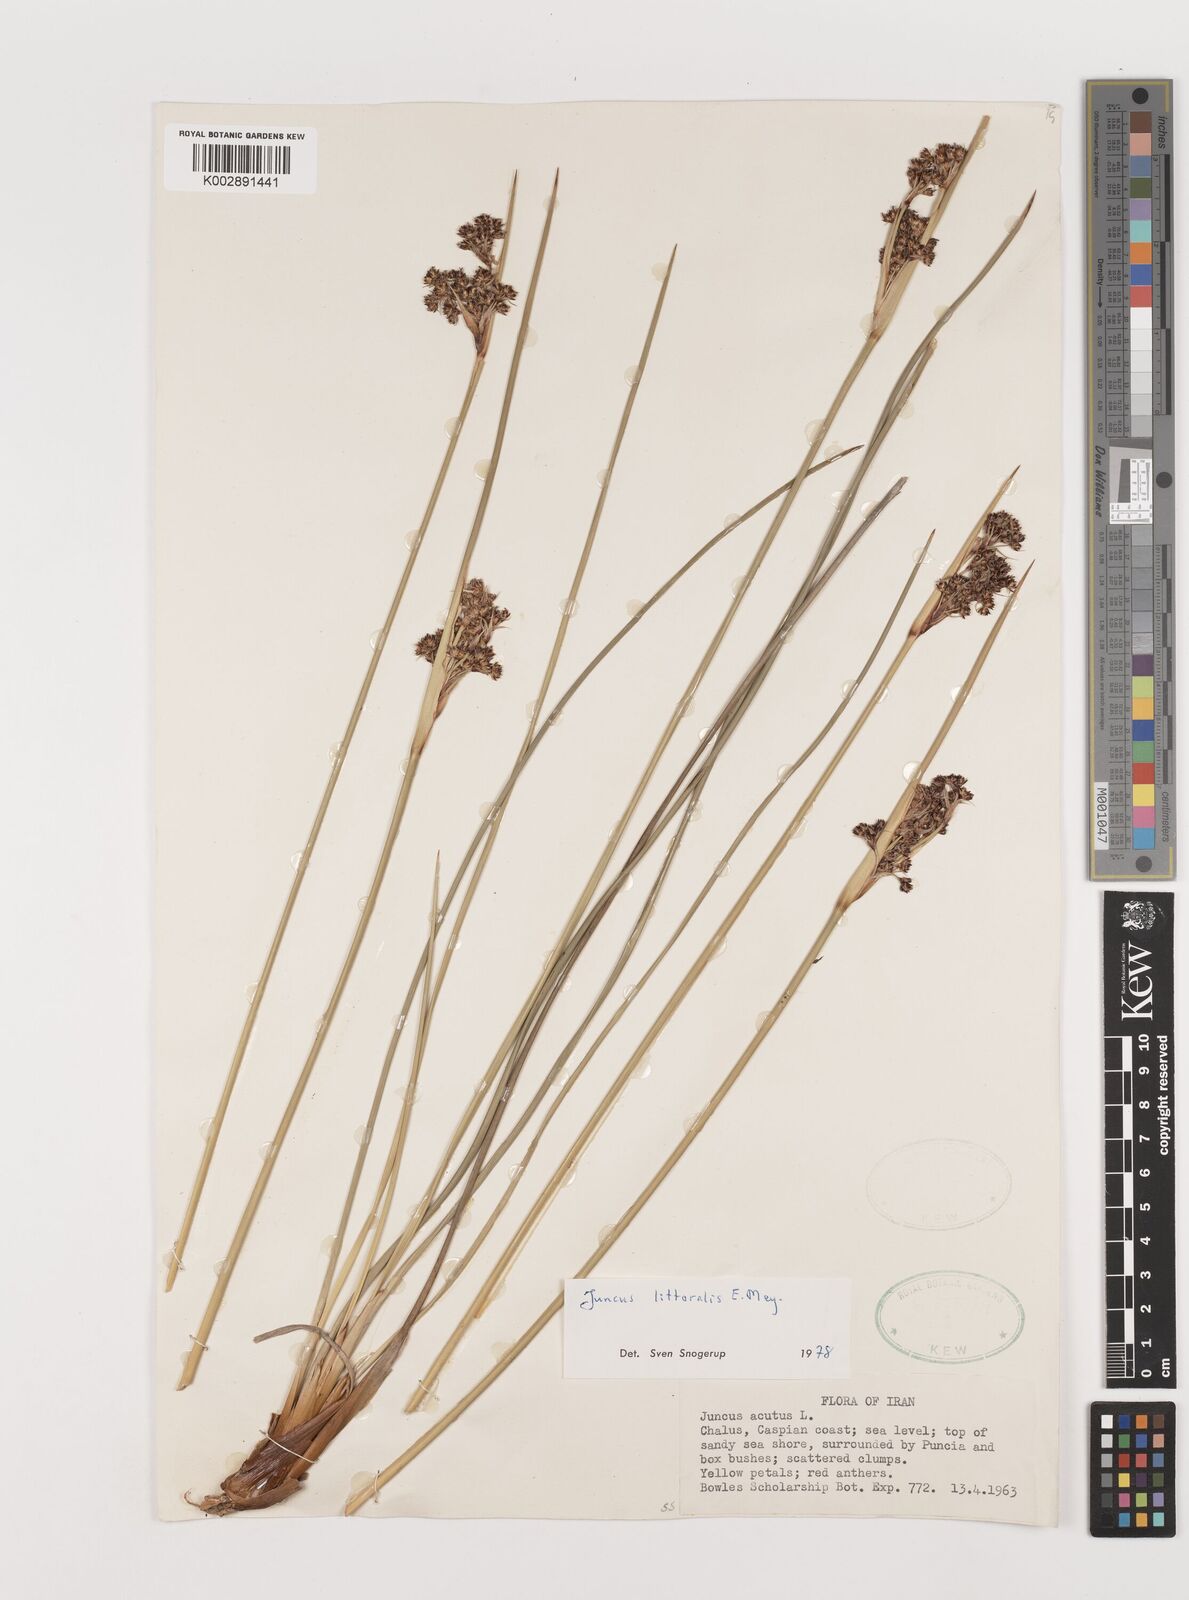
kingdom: Plantae
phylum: Tracheophyta
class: Liliopsida
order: Poales
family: Juncaceae
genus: Juncus
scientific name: Juncus littoralis
